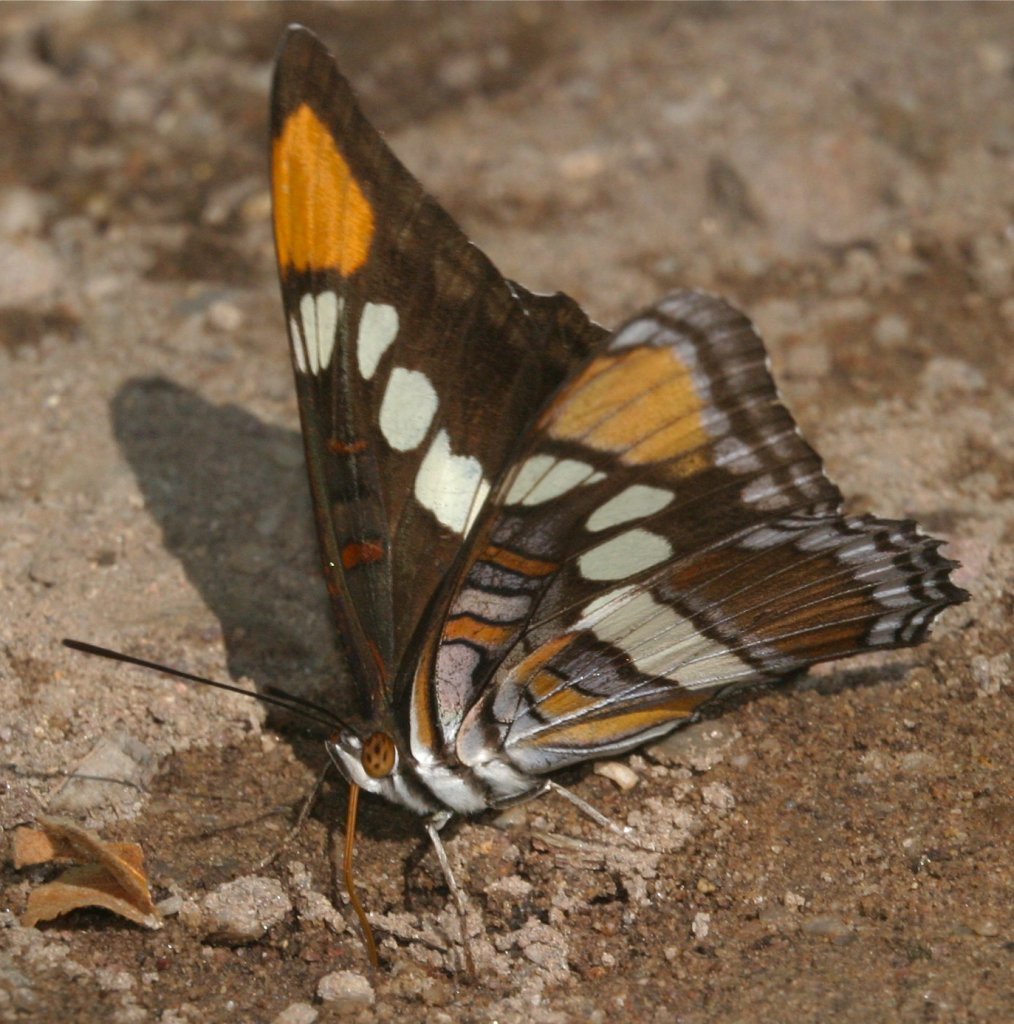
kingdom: Animalia
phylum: Arthropoda
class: Insecta
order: Lepidoptera
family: Nymphalidae
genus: Limenitis
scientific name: Limenitis bredowii
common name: Arizona Sister
